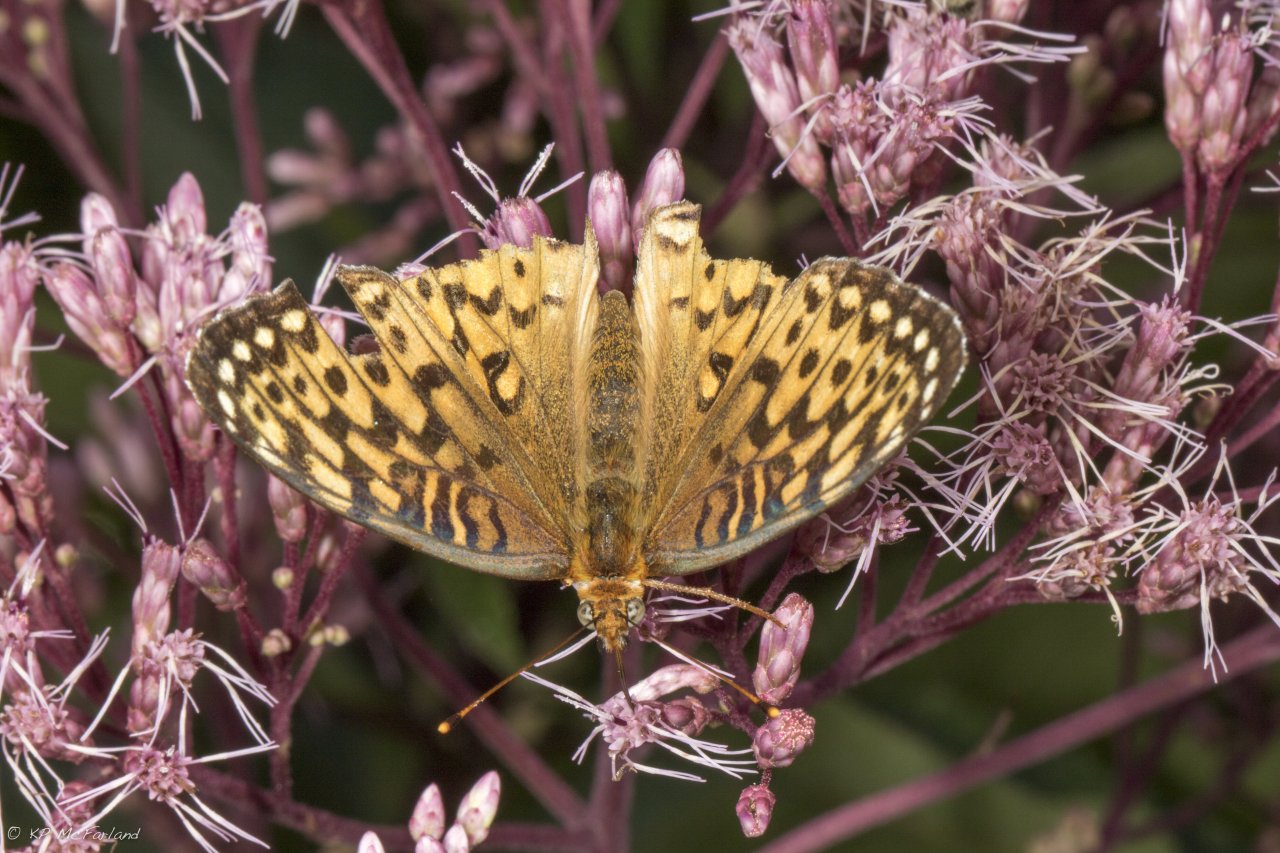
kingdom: Animalia
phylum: Arthropoda
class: Insecta
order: Lepidoptera
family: Nymphalidae
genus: Speyeria
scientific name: Speyeria atlantis
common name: Atlantis Fritillary
